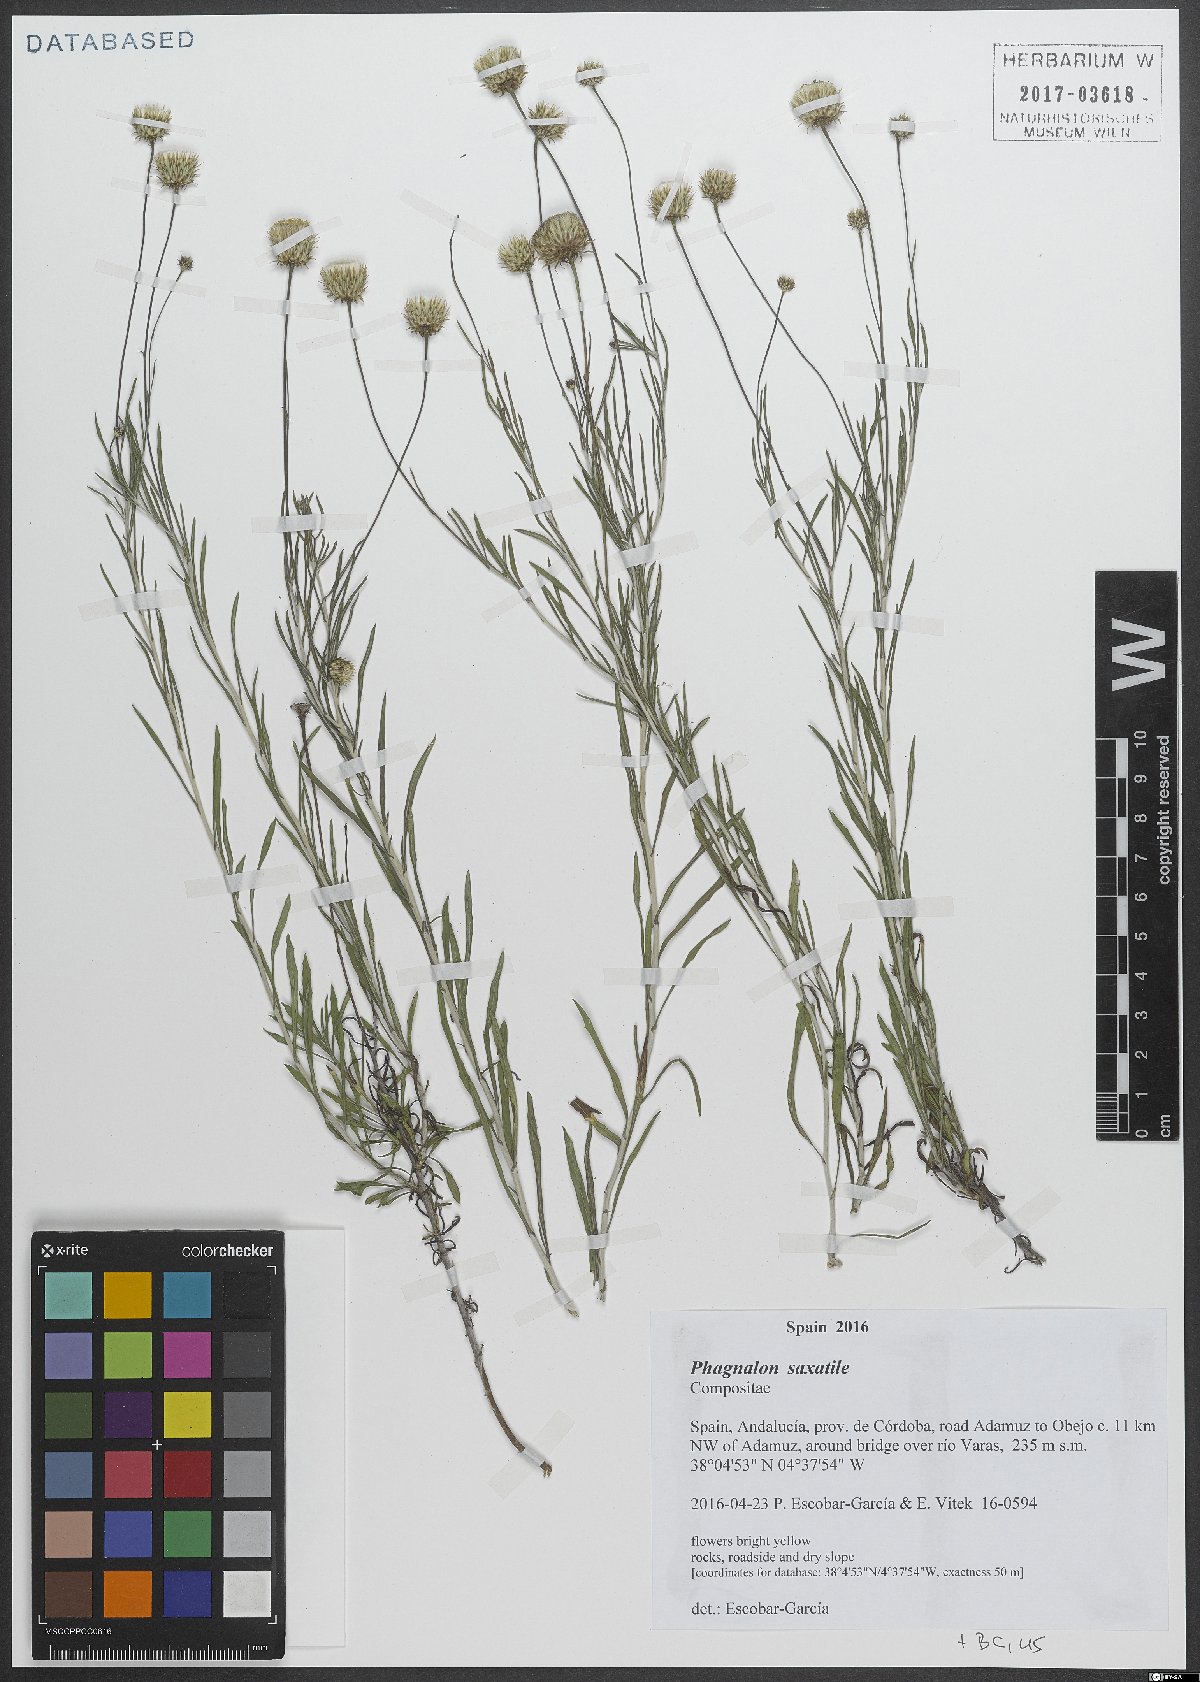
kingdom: Plantae
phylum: Tracheophyta
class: Magnoliopsida
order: Asterales
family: Asteraceae
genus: Phagnalon
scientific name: Phagnalon saxatile
